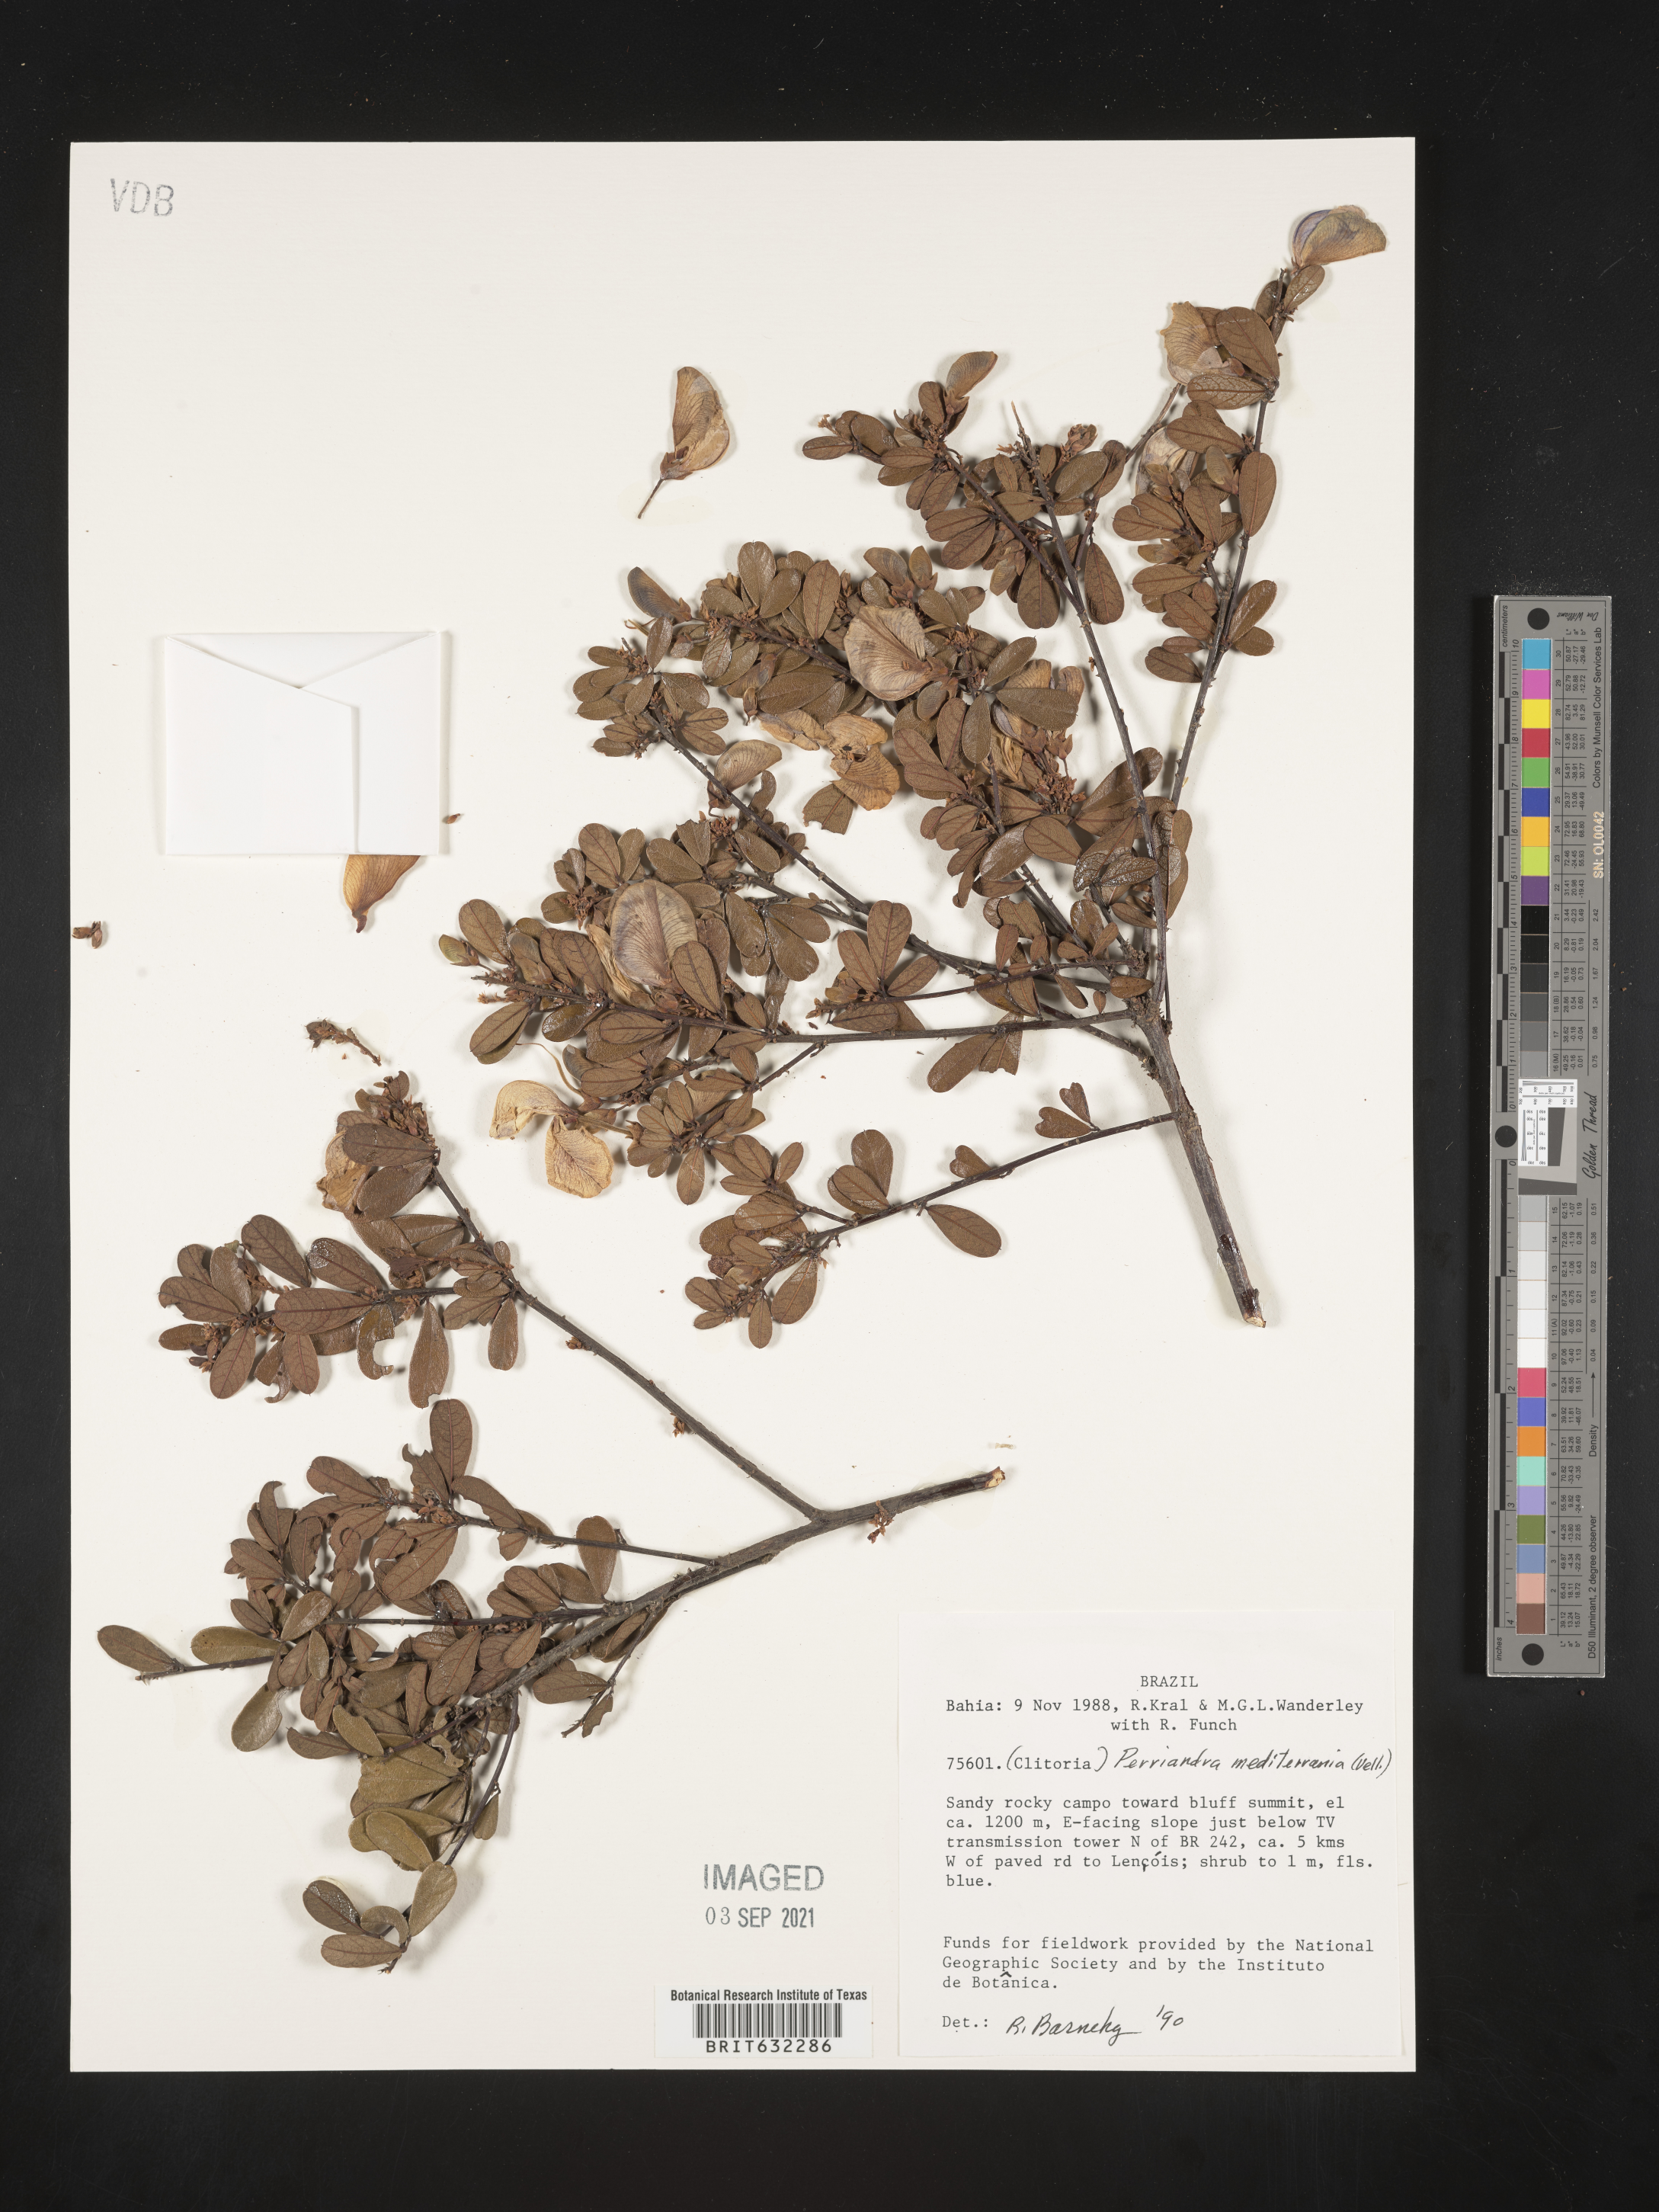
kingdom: Plantae
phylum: Tracheophyta
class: Magnoliopsida
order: Fabales
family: Fabaceae
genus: Periandra
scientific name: Periandra
